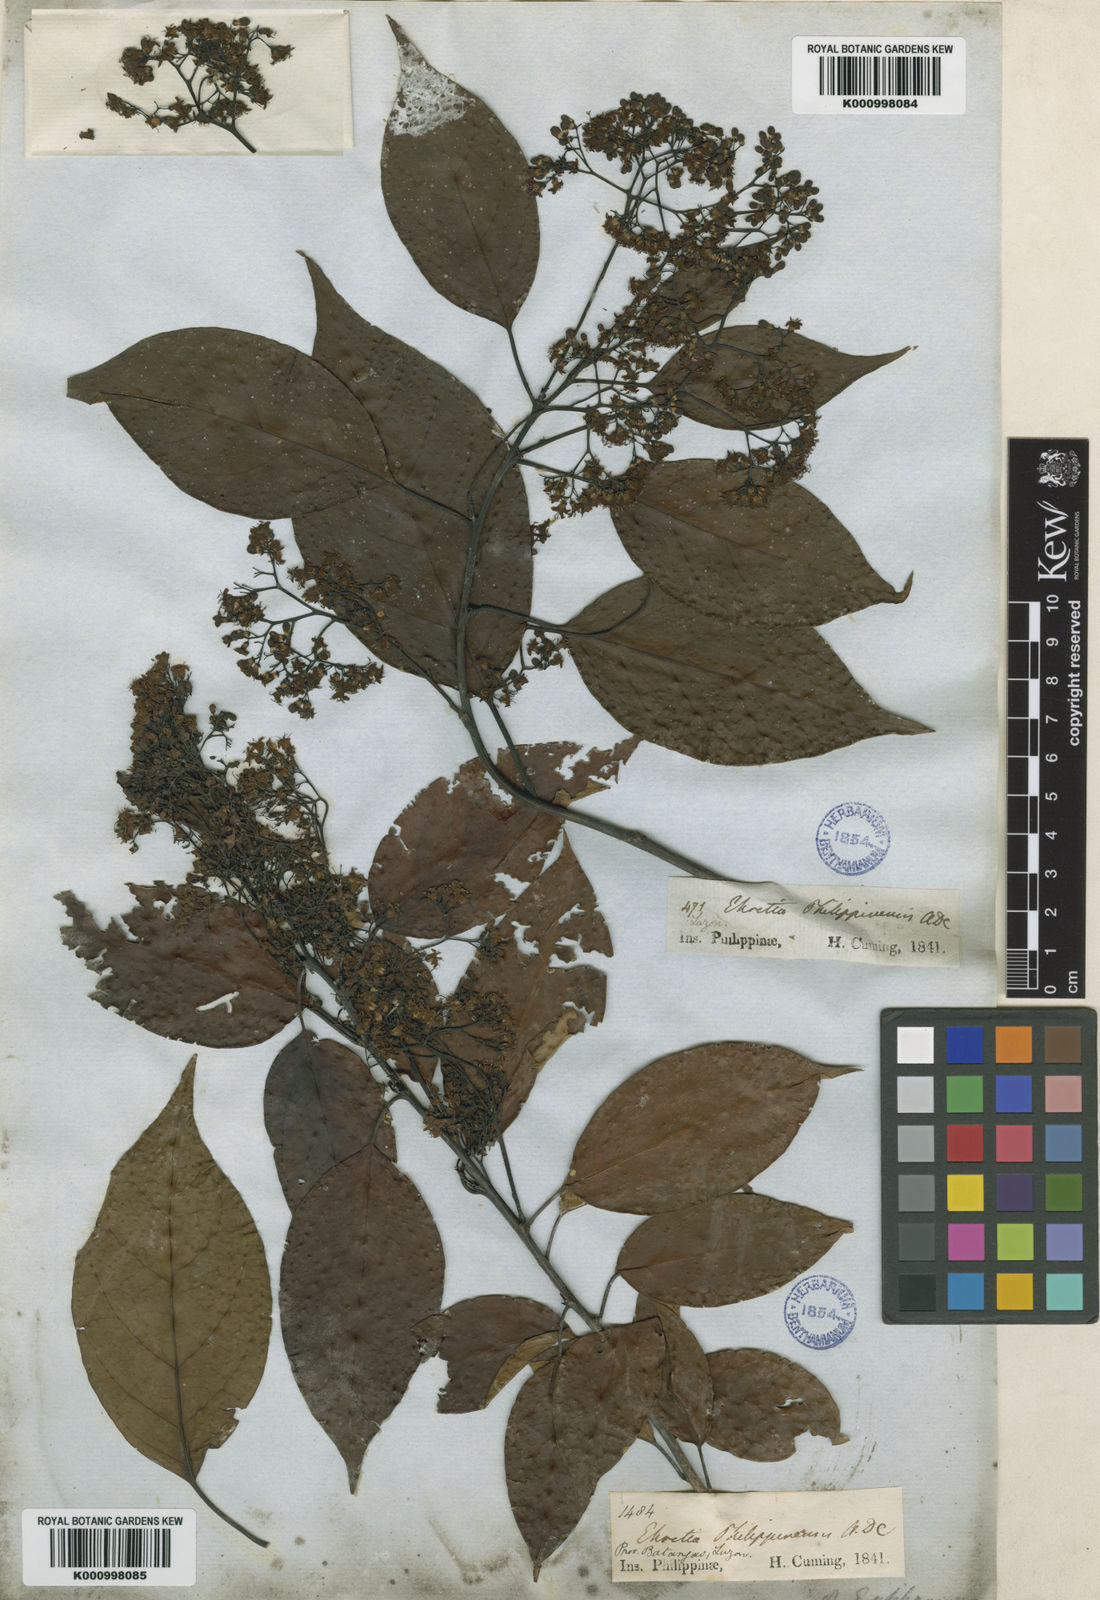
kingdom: Plantae
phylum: Tracheophyta
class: Magnoliopsida
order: Boraginales
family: Ehretiaceae
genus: Ehretia
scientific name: Ehretia philippinensis
